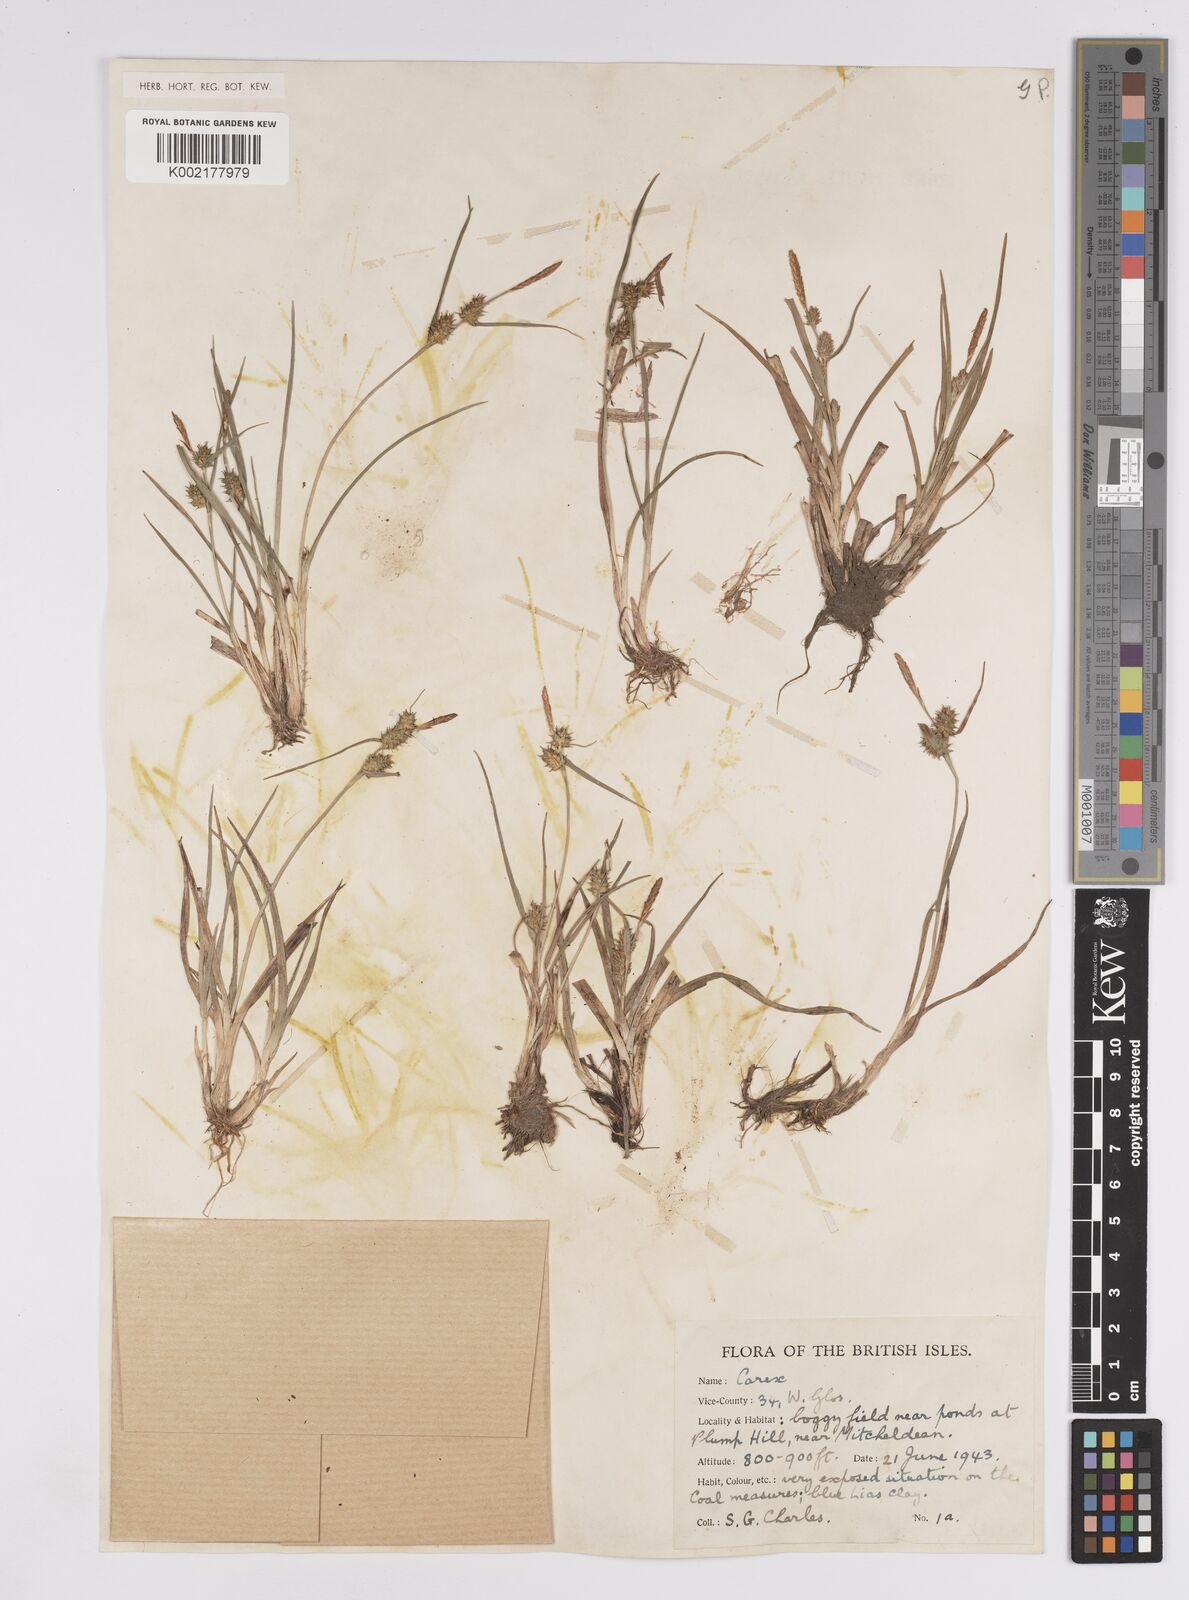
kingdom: Plantae
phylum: Tracheophyta
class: Liliopsida
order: Poales
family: Cyperaceae
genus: Carex
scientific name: Carex demissa
